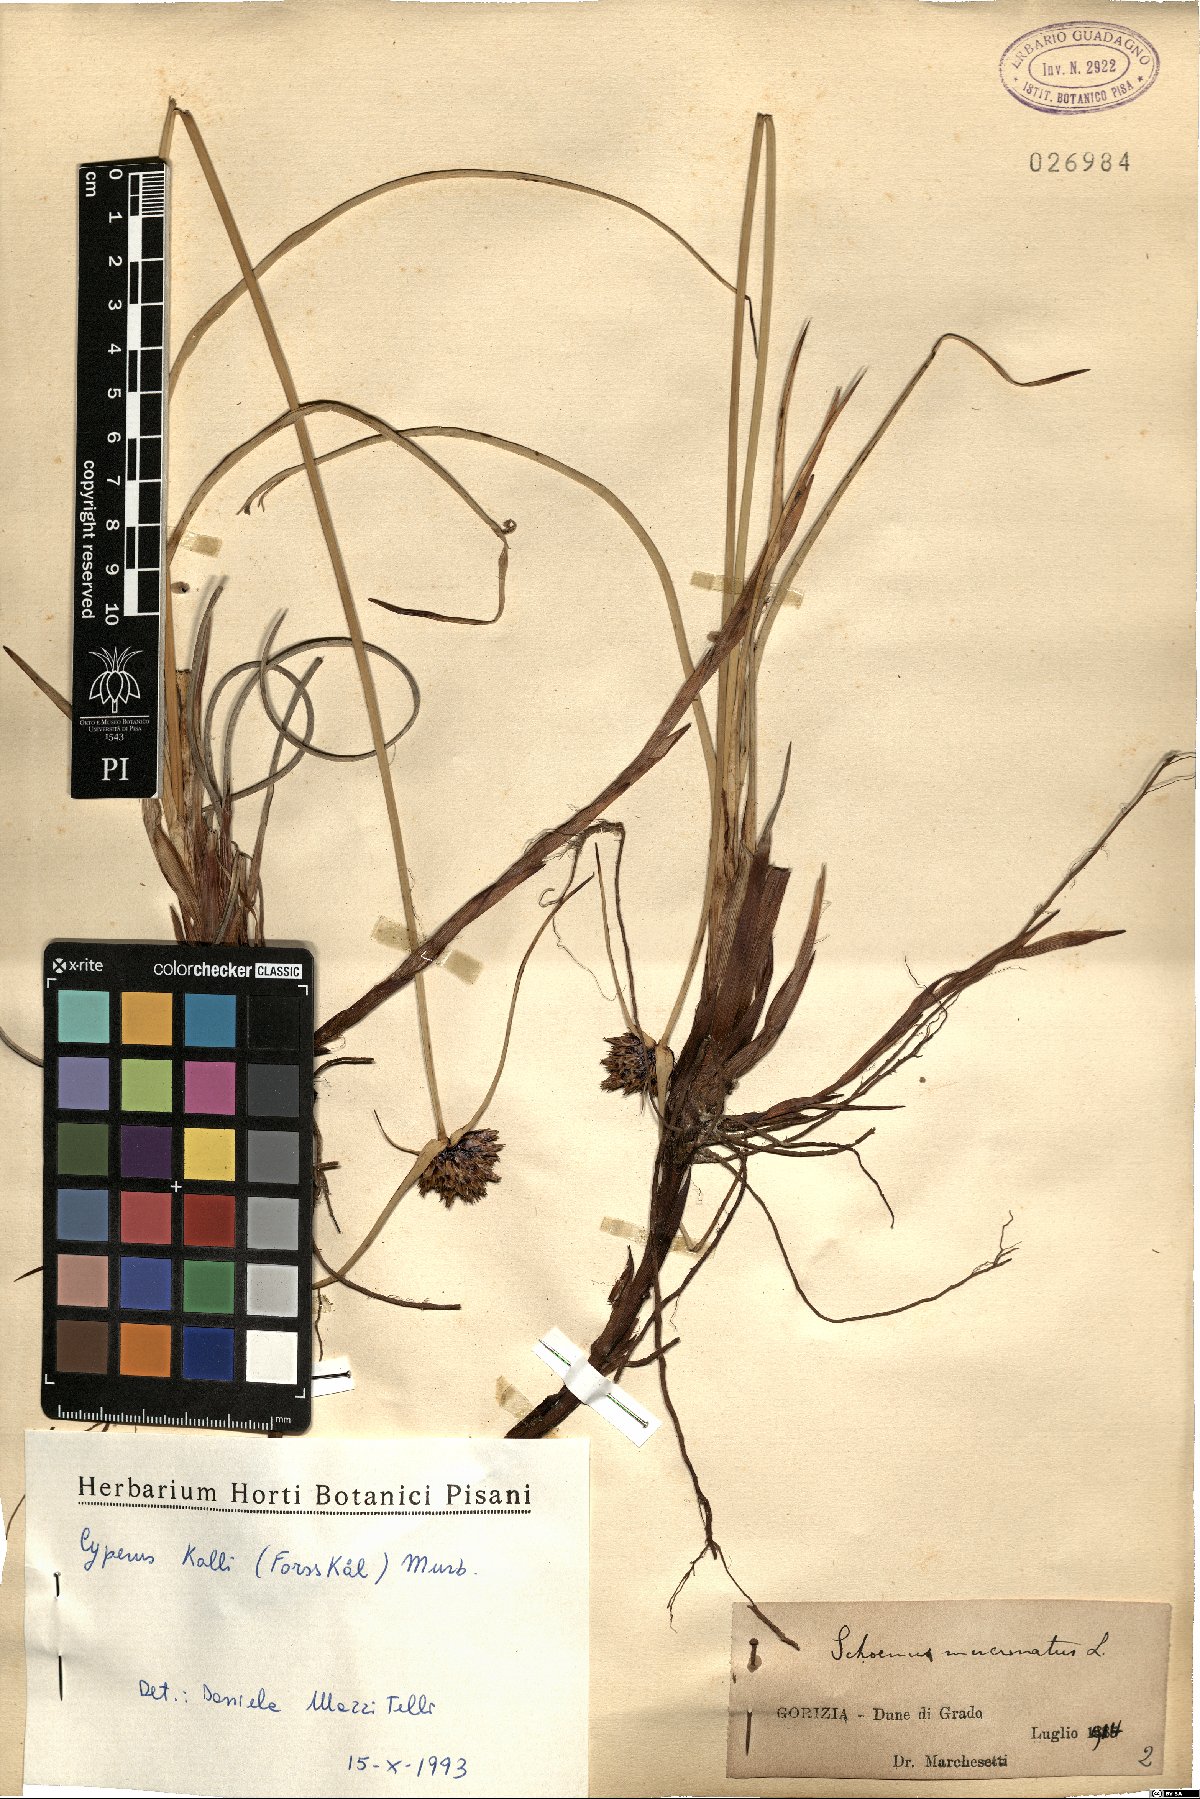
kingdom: Plantae
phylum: Tracheophyta
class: Liliopsida
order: Poales
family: Cyperaceae
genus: Cyperus
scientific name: Cyperus capitatus
